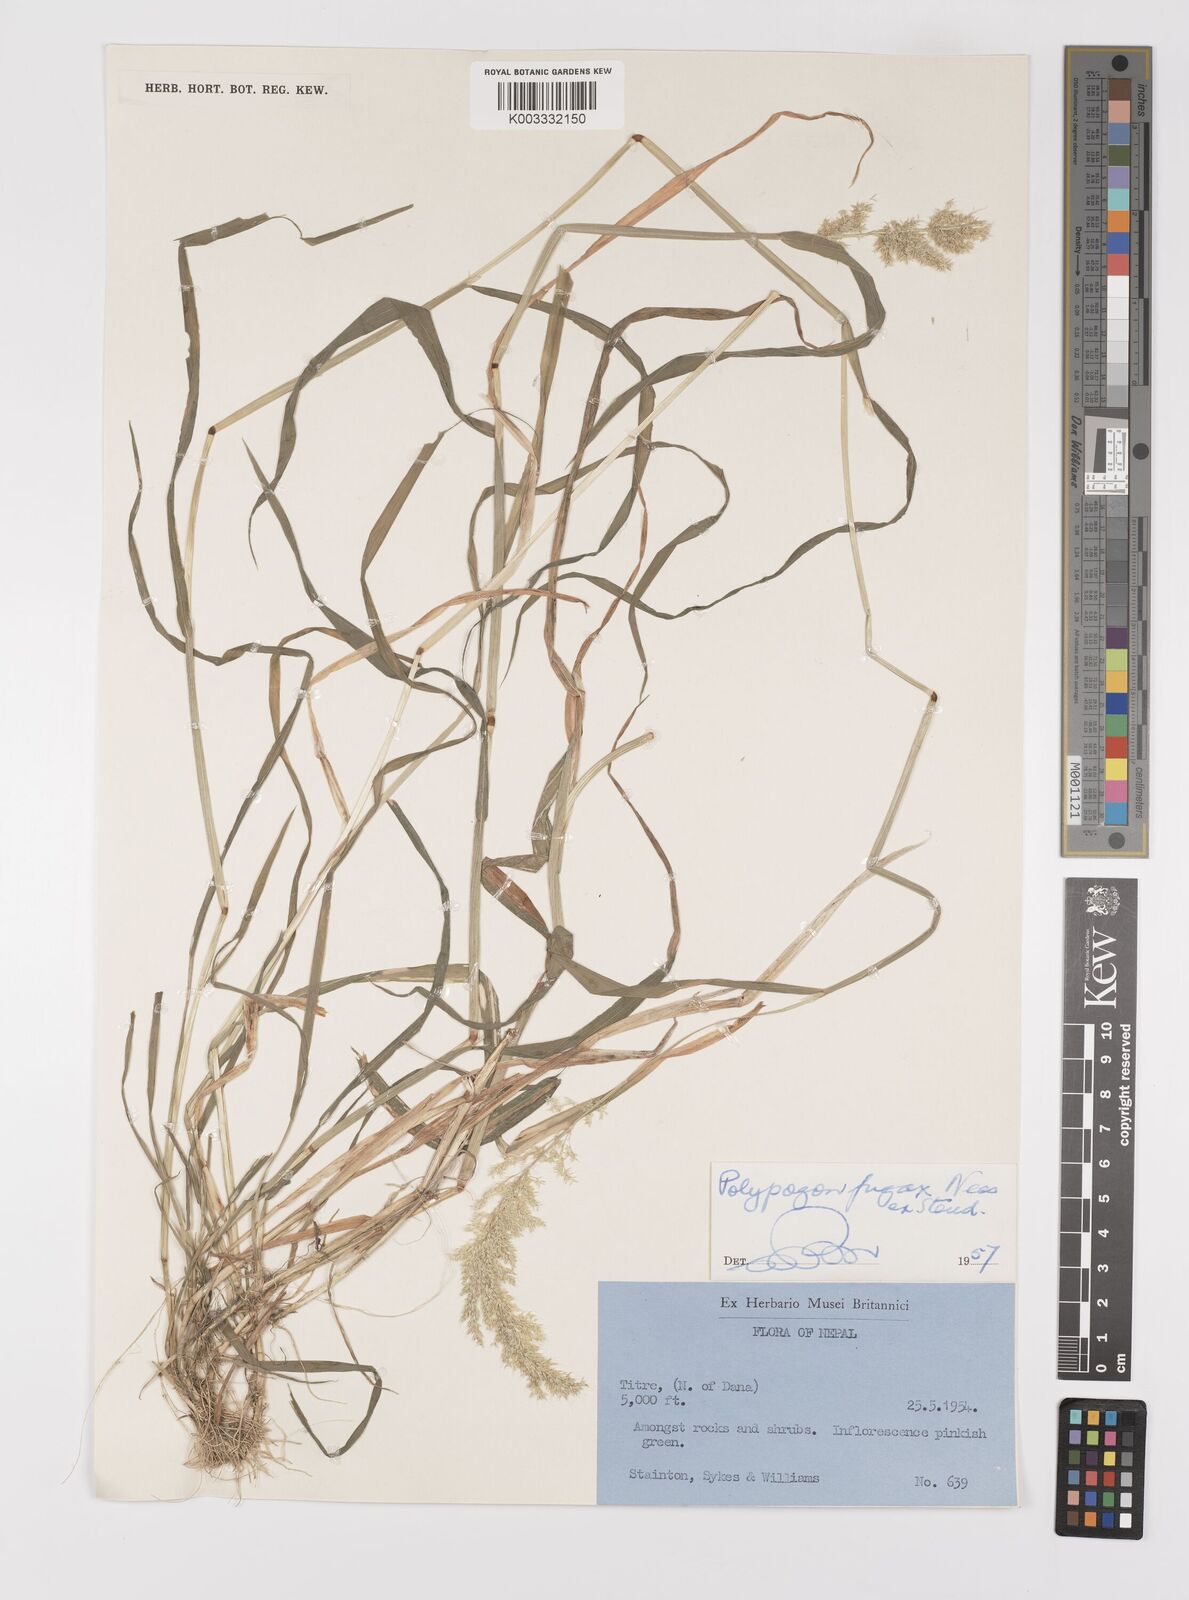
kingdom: Plantae
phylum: Tracheophyta
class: Liliopsida
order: Poales
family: Poaceae
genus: Polypogon
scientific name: Polypogon fugax
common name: Asia minor bluegrass
